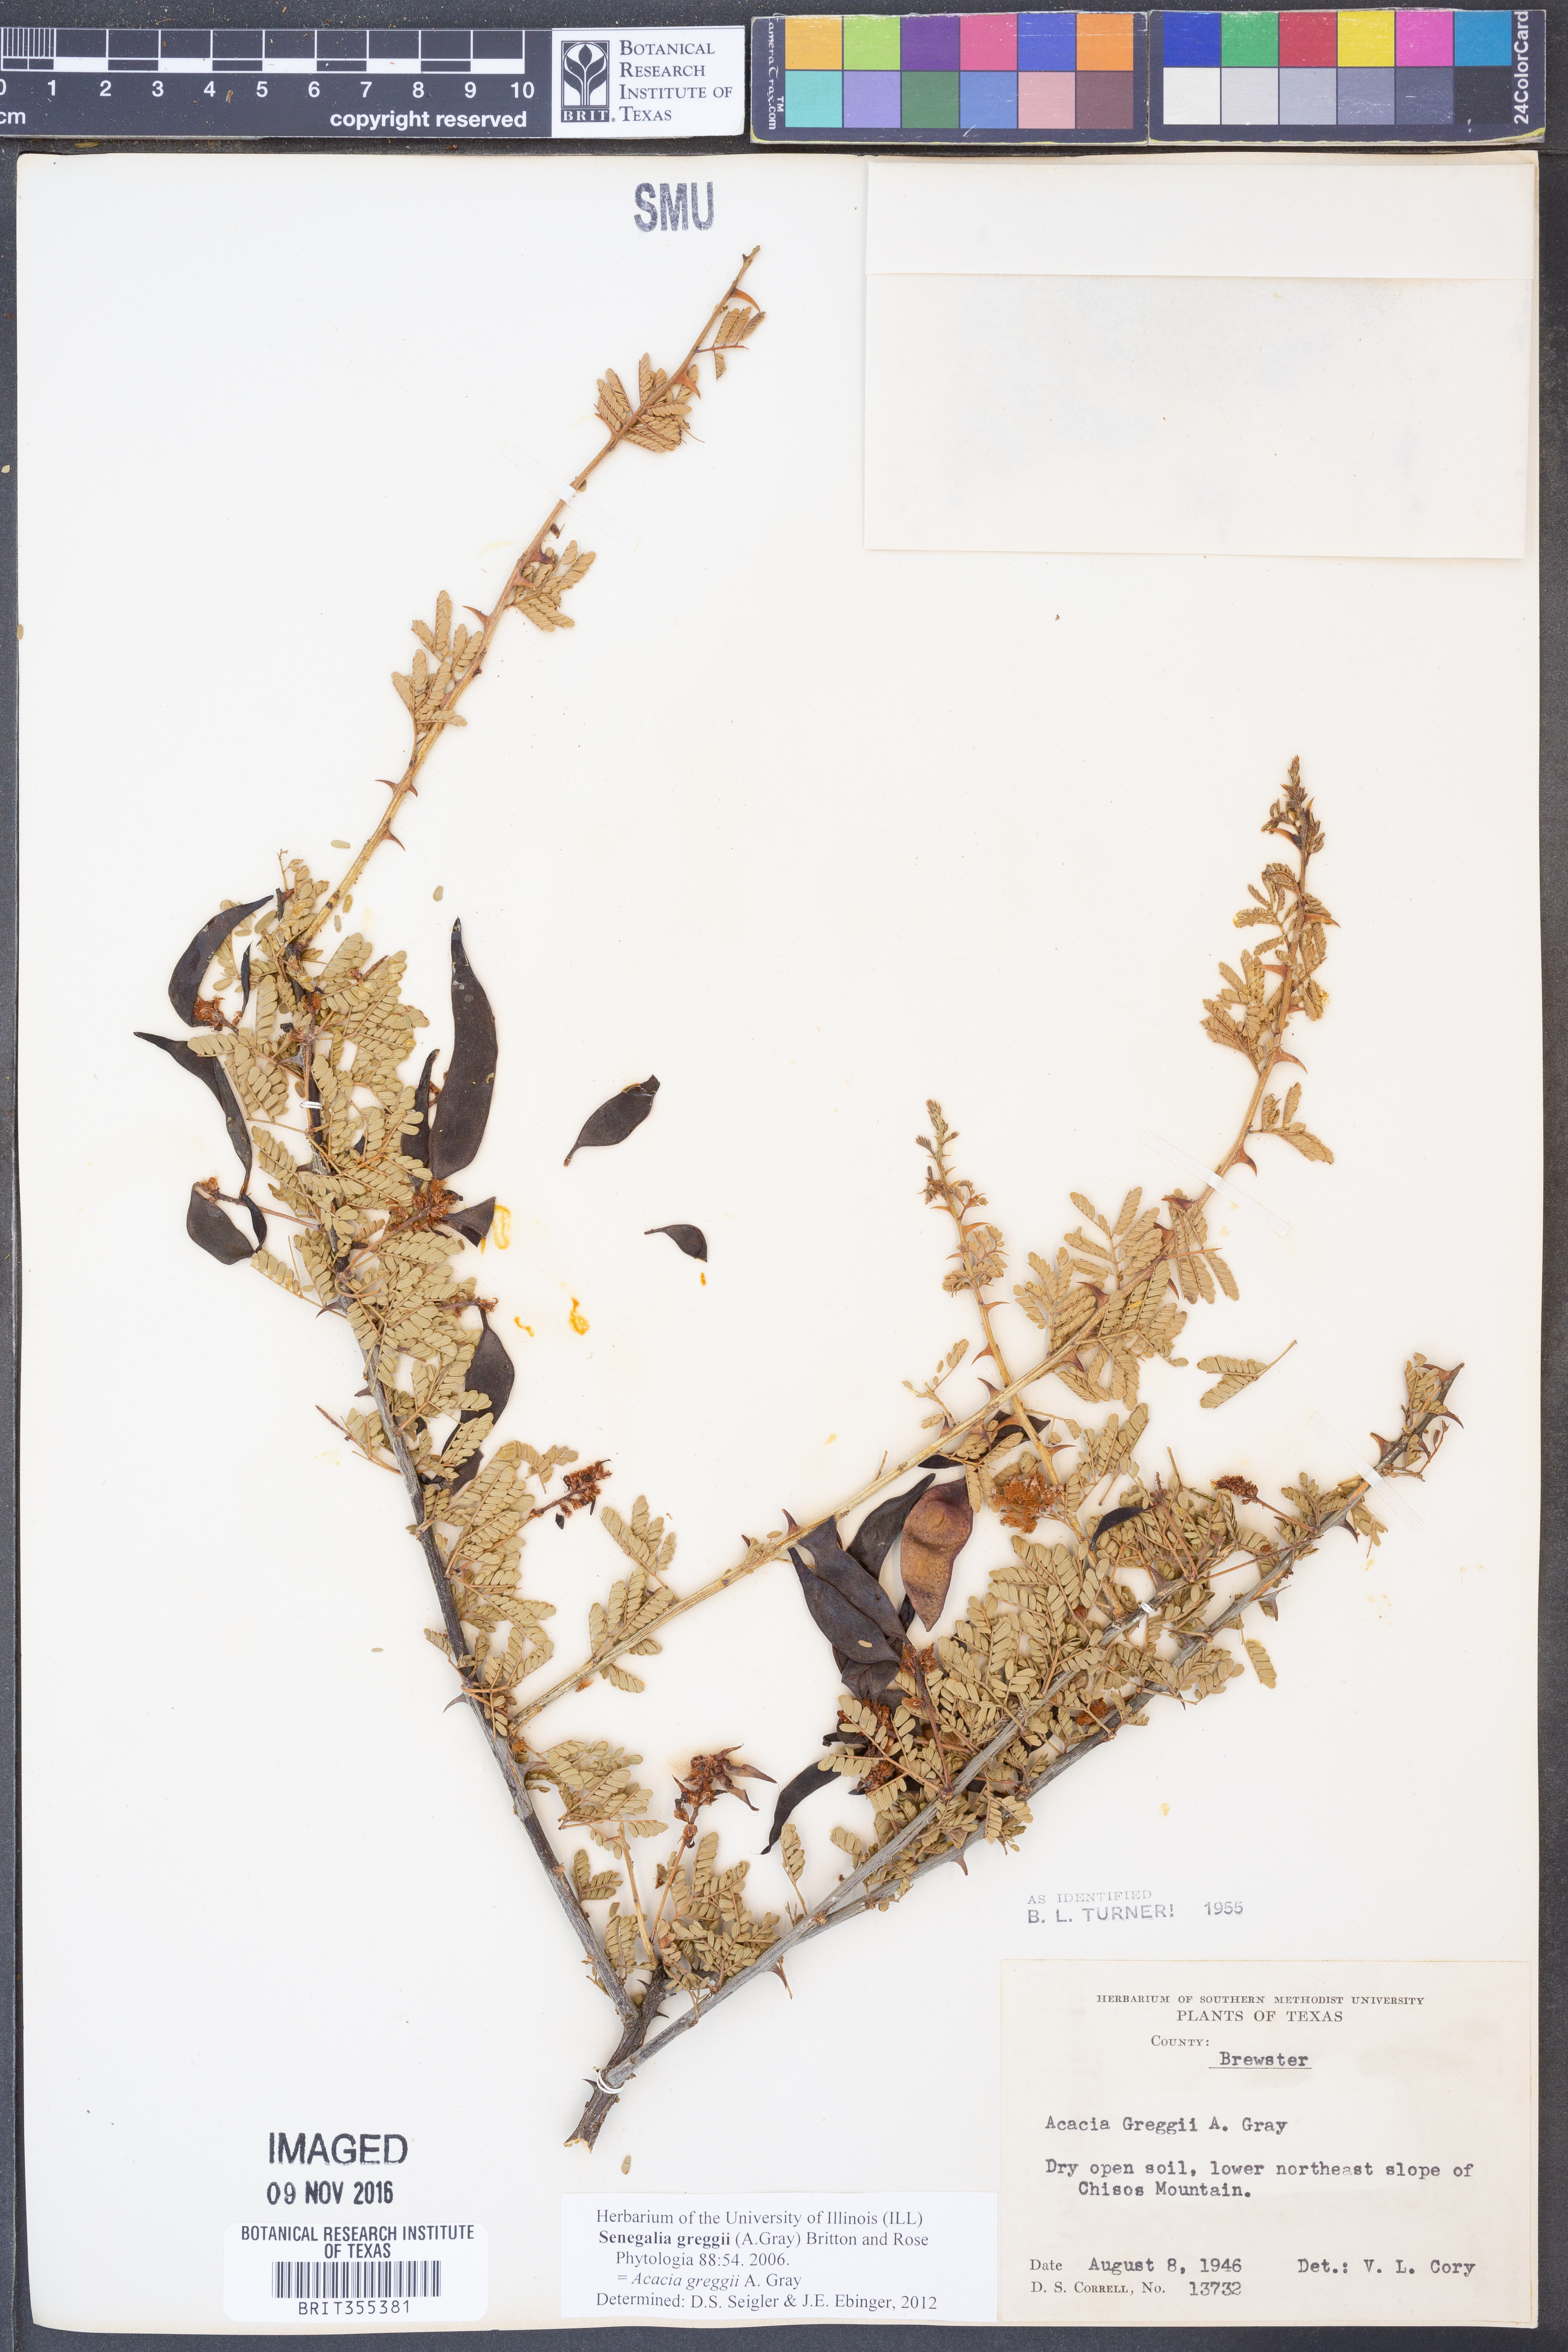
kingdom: Plantae
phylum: Tracheophyta
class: Magnoliopsida
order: Fabales
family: Fabaceae
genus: Senegalia
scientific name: Senegalia greggii
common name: Texas-mimosa
